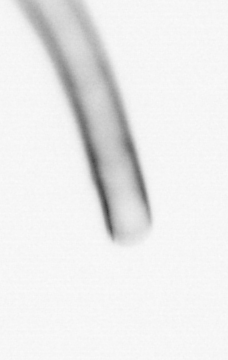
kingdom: Chromista
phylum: Ochrophyta
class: Bacillariophyceae
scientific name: Bacillariophyceae
